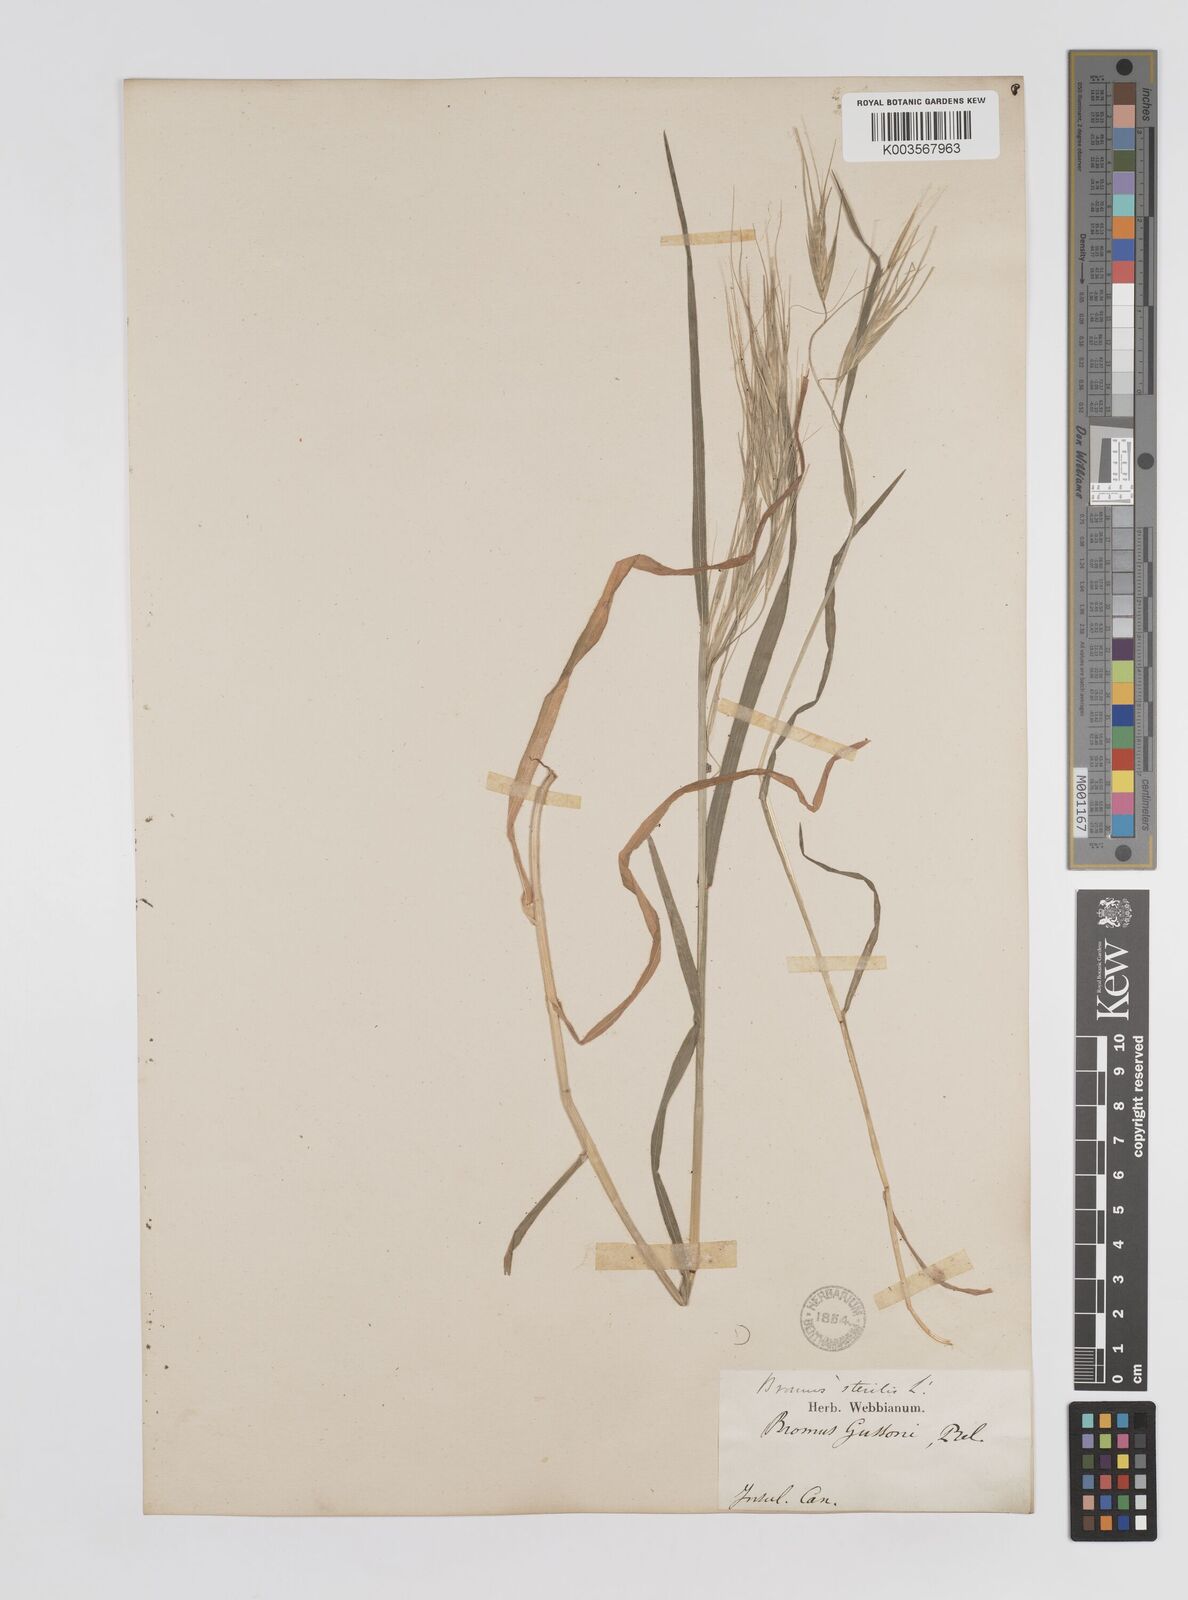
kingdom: Plantae
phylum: Tracheophyta
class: Liliopsida
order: Poales
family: Poaceae
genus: Bromus
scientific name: Bromus diandrus
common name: Ripgut brome
